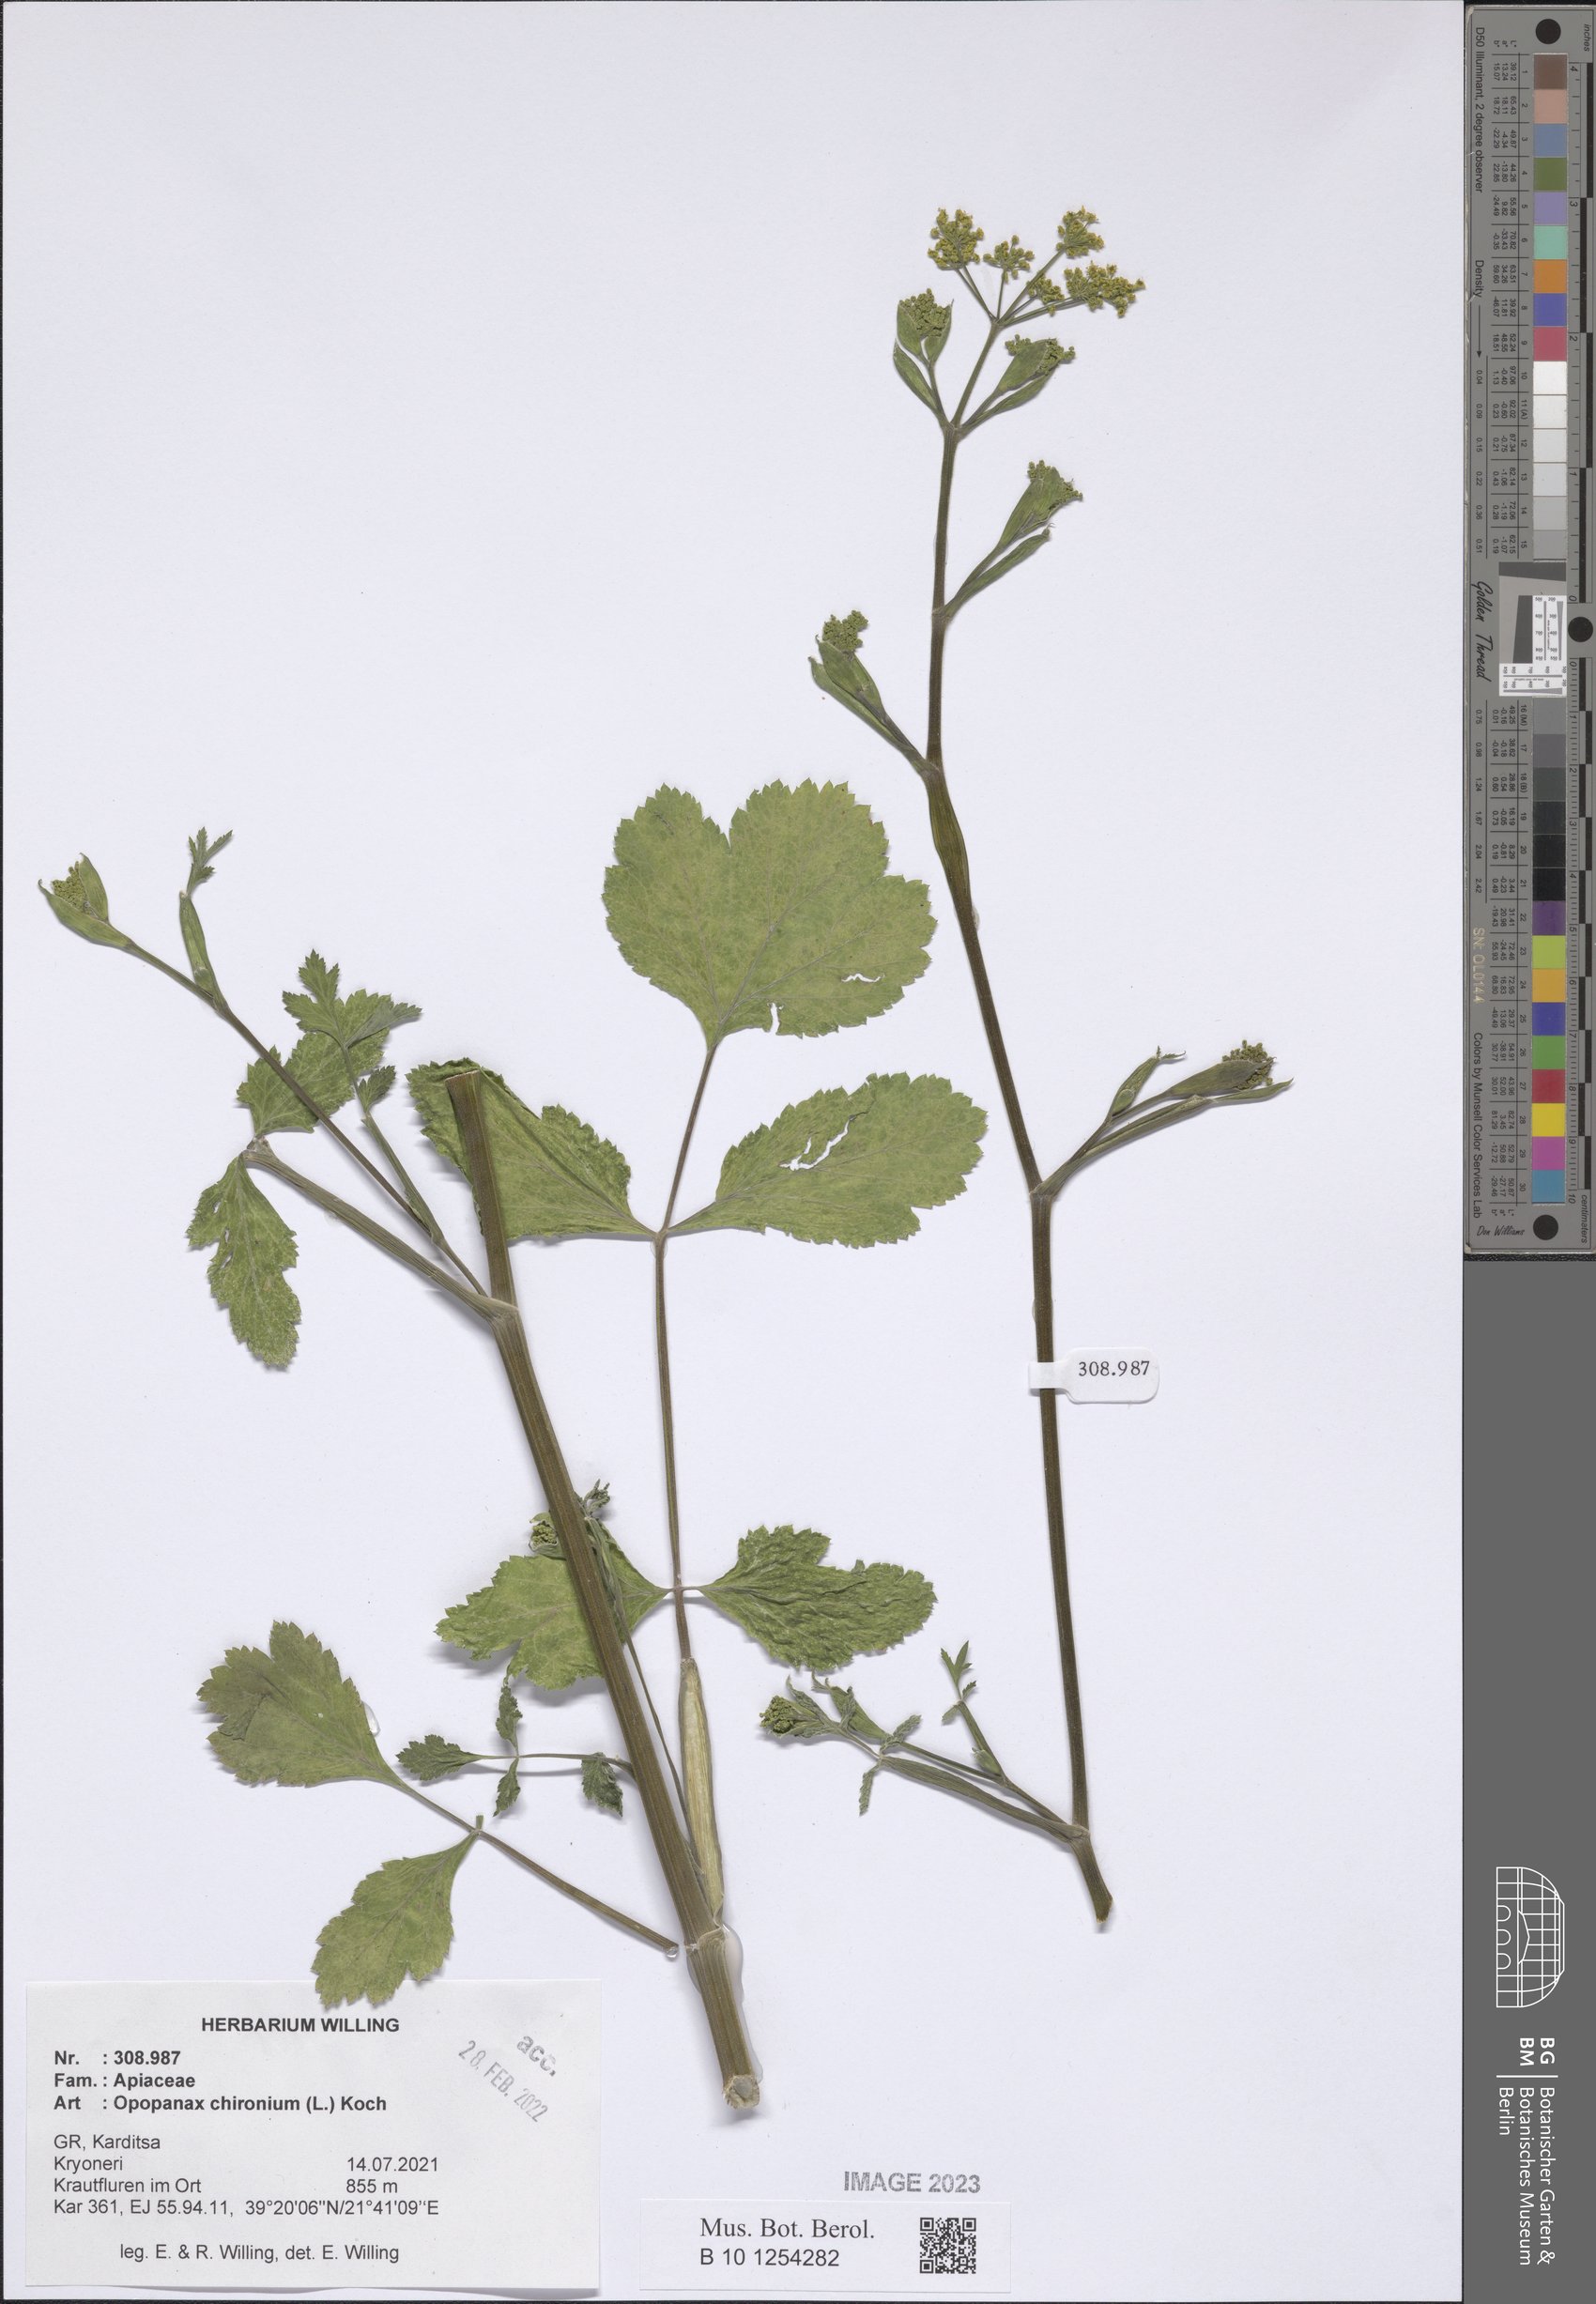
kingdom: Plantae
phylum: Tracheophyta
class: Magnoliopsida
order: Apiales
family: Apiaceae
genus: Opopanax
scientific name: Opopanax chironium
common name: Hercules-all-heal
